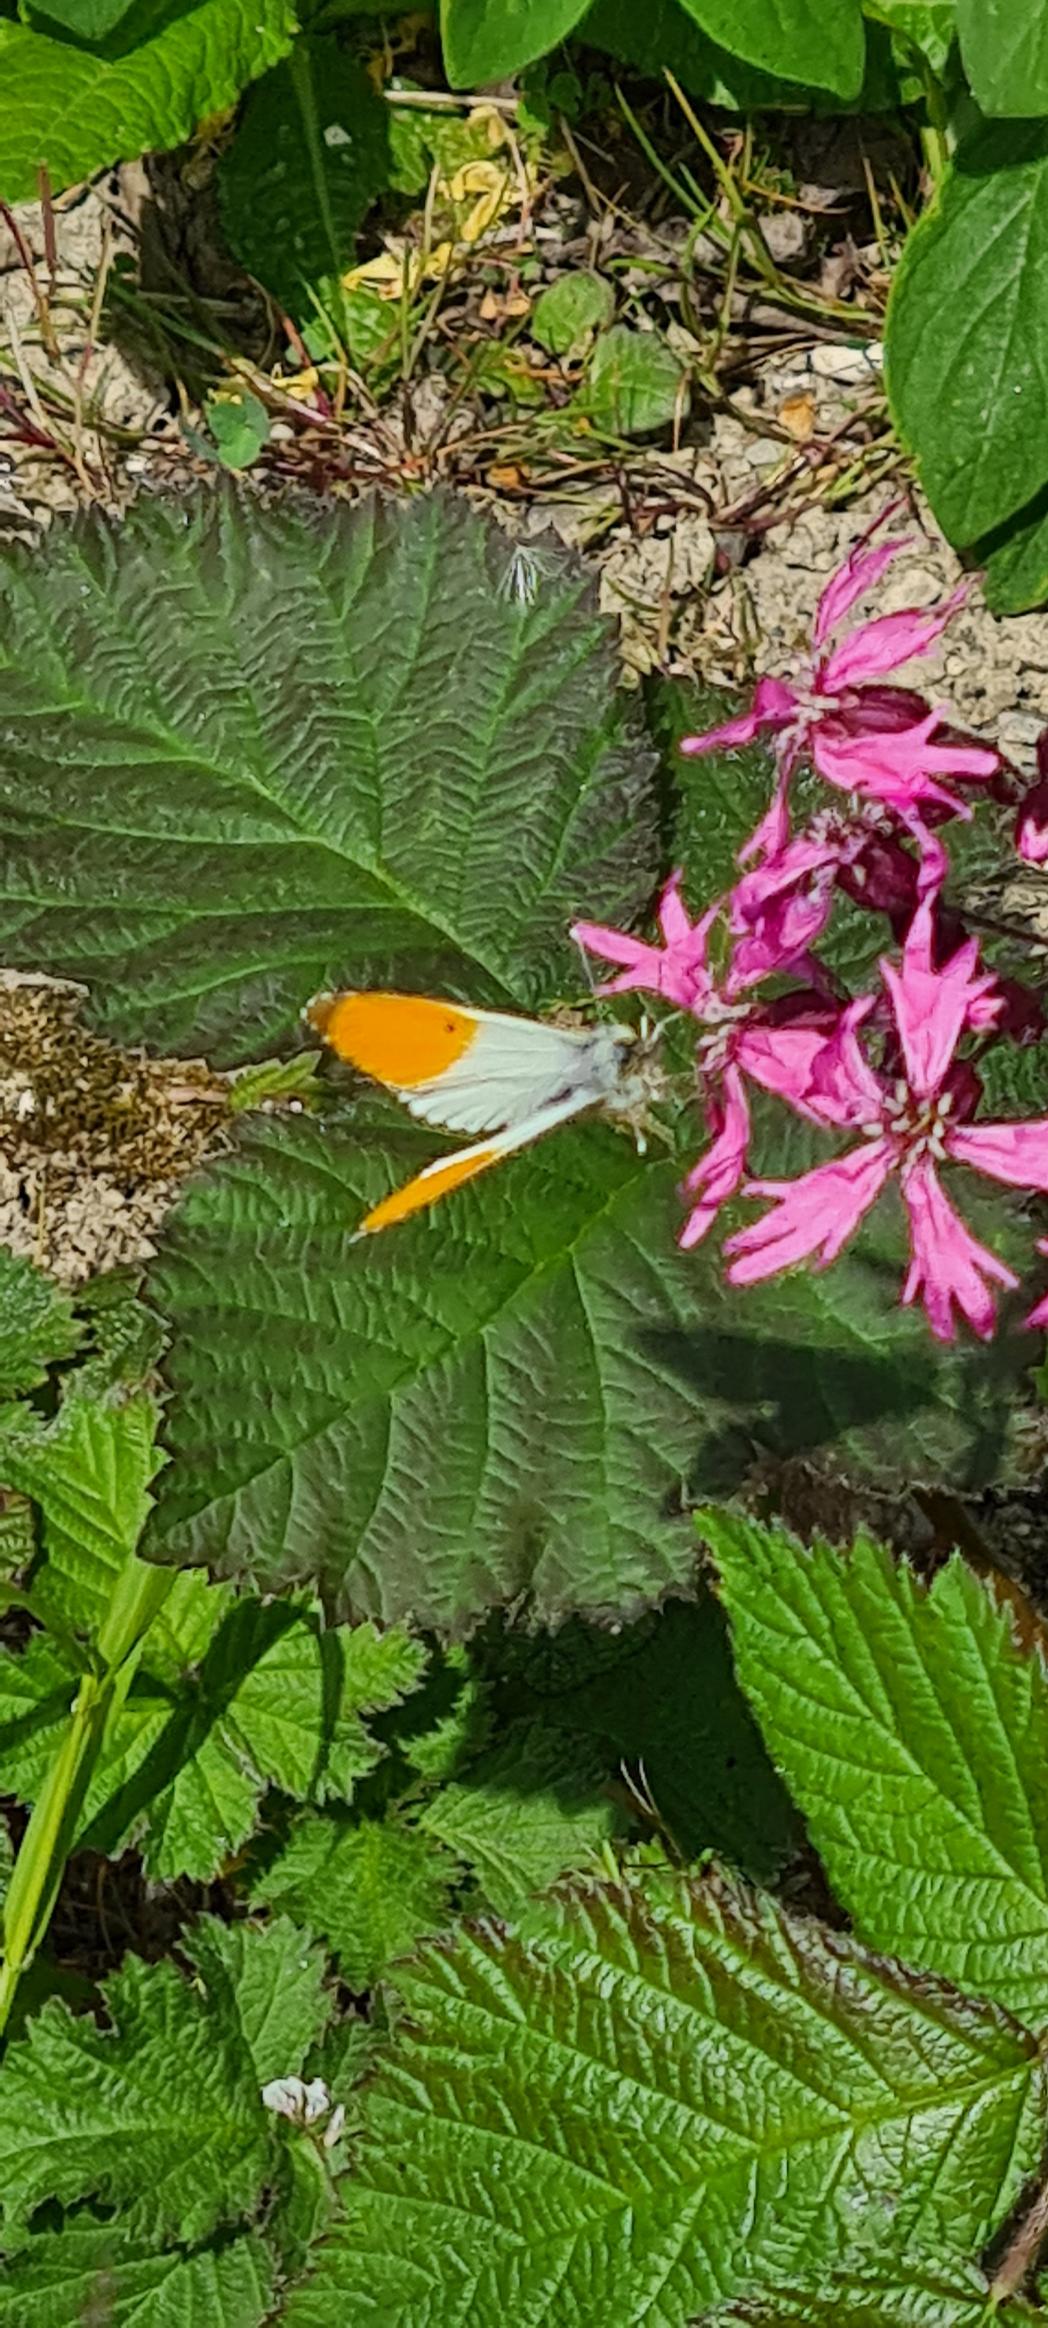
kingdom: Animalia
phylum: Arthropoda
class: Insecta
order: Lepidoptera
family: Pieridae
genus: Anthocharis
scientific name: Anthocharis cardamines
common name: Aurora
